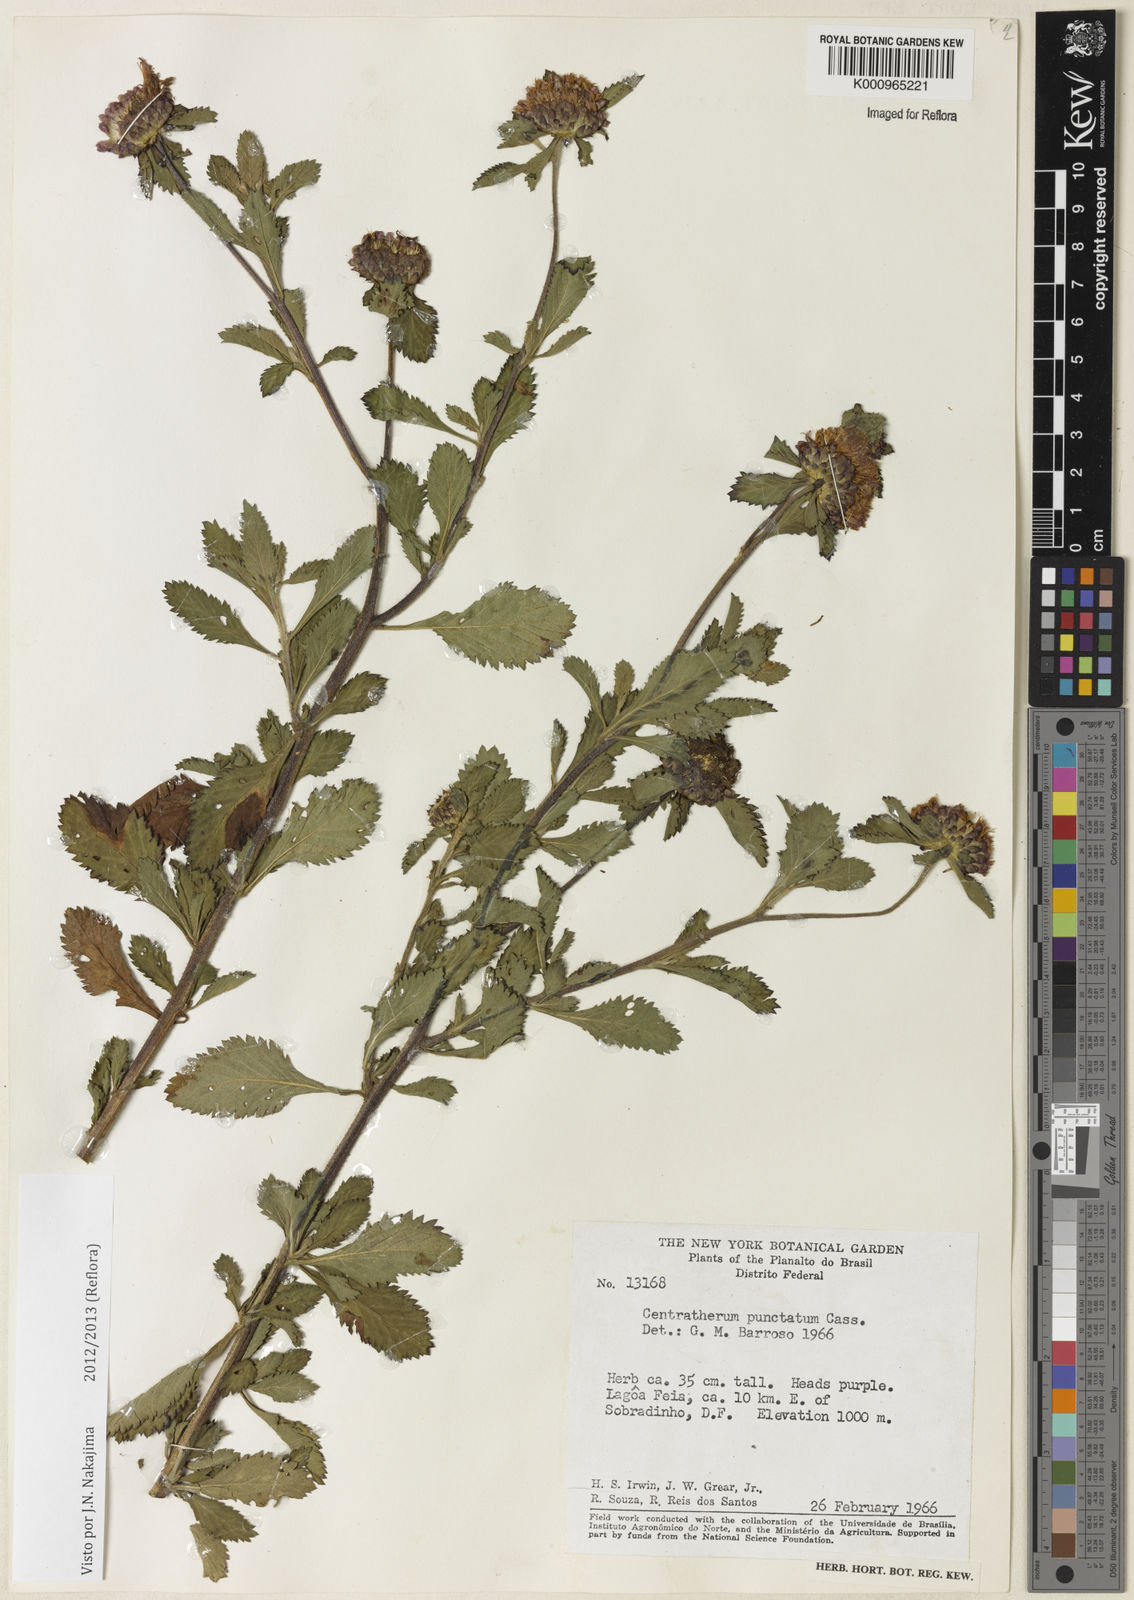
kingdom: Plantae
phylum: Tracheophyta
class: Magnoliopsida
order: Asterales
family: Asteraceae
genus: Centratherum
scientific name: Centratherum punctatum
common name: Larkdaisy
